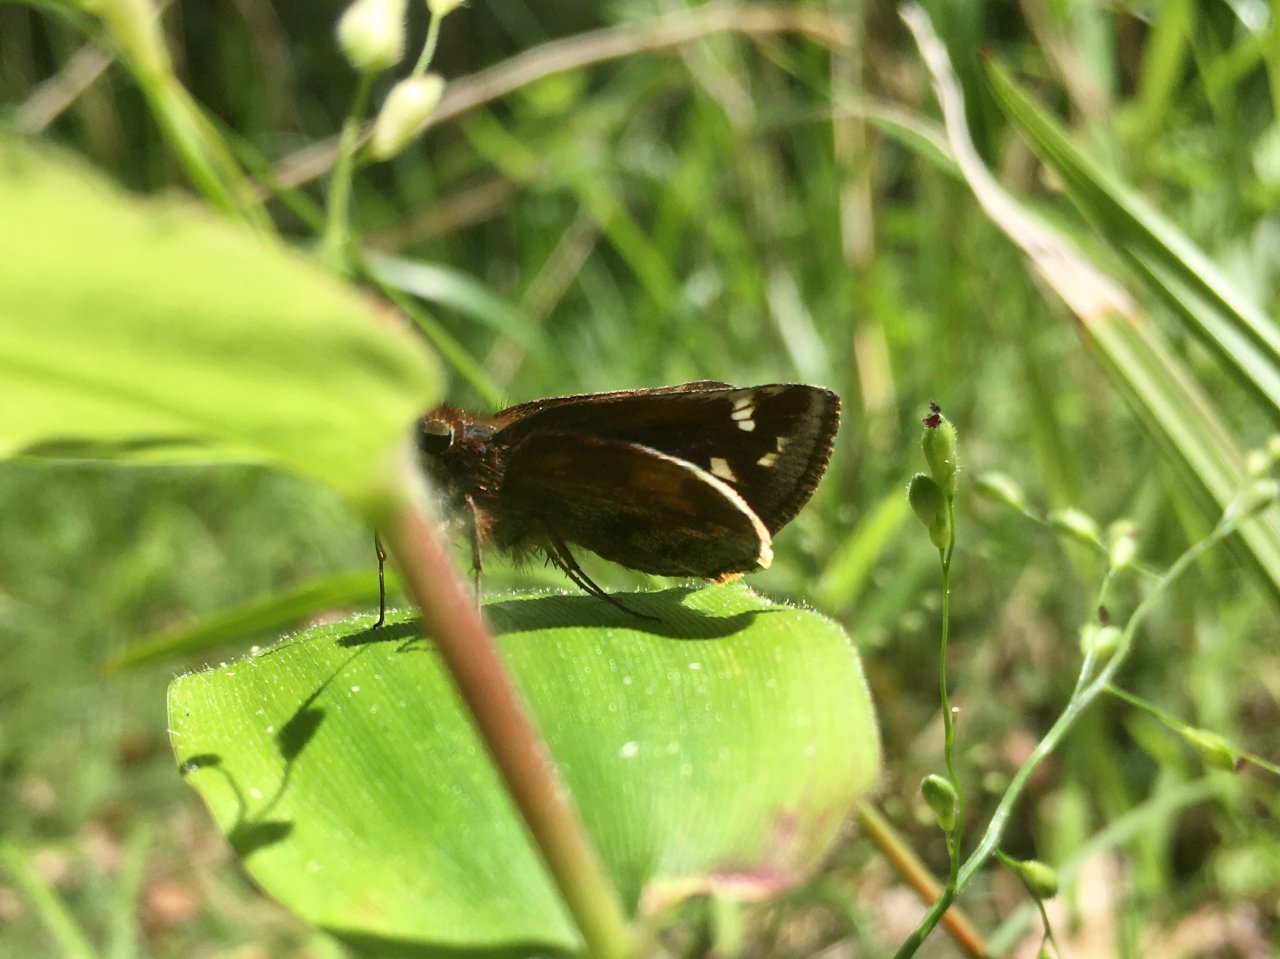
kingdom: Animalia
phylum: Arthropoda
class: Insecta
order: Lepidoptera
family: Hesperiidae
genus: Lon
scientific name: Lon zabulon
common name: Zabulon Skipper
